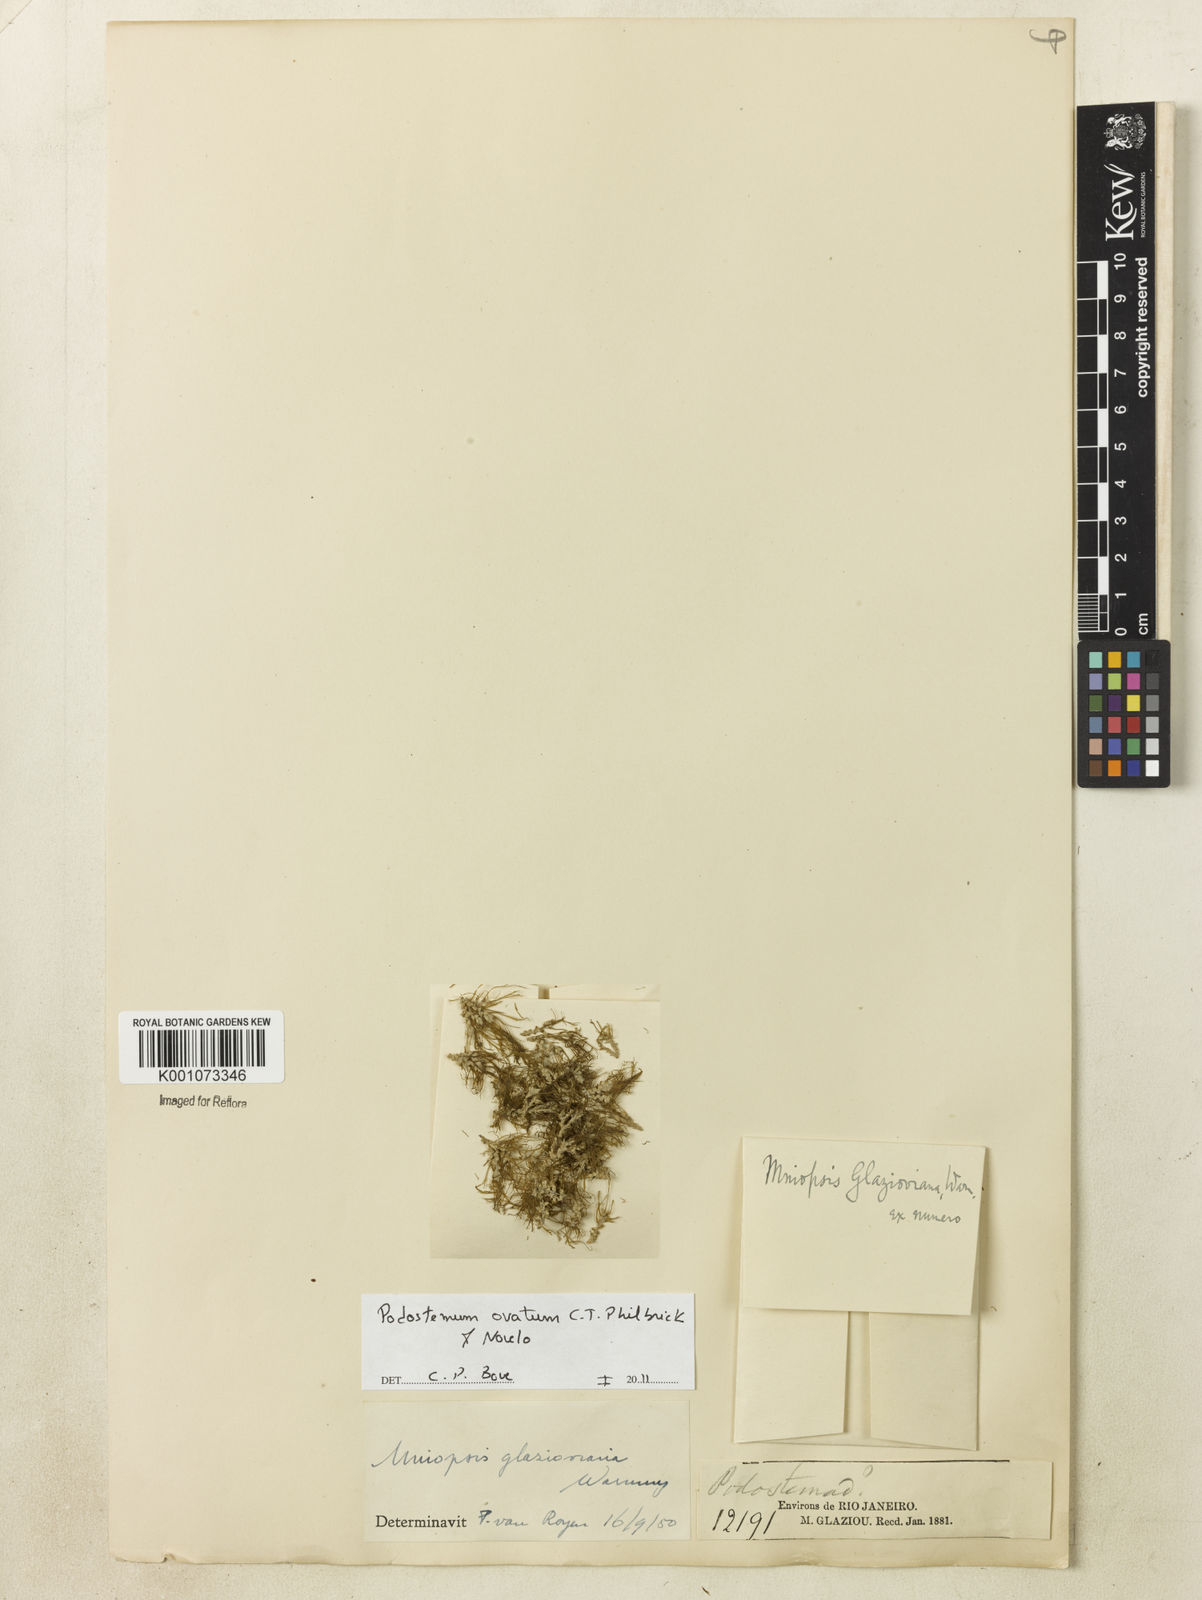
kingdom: Plantae
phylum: Tracheophyta
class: Magnoliopsida
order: Malpighiales
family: Podostemaceae
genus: Podostemum
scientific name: Podostemum ovatum
